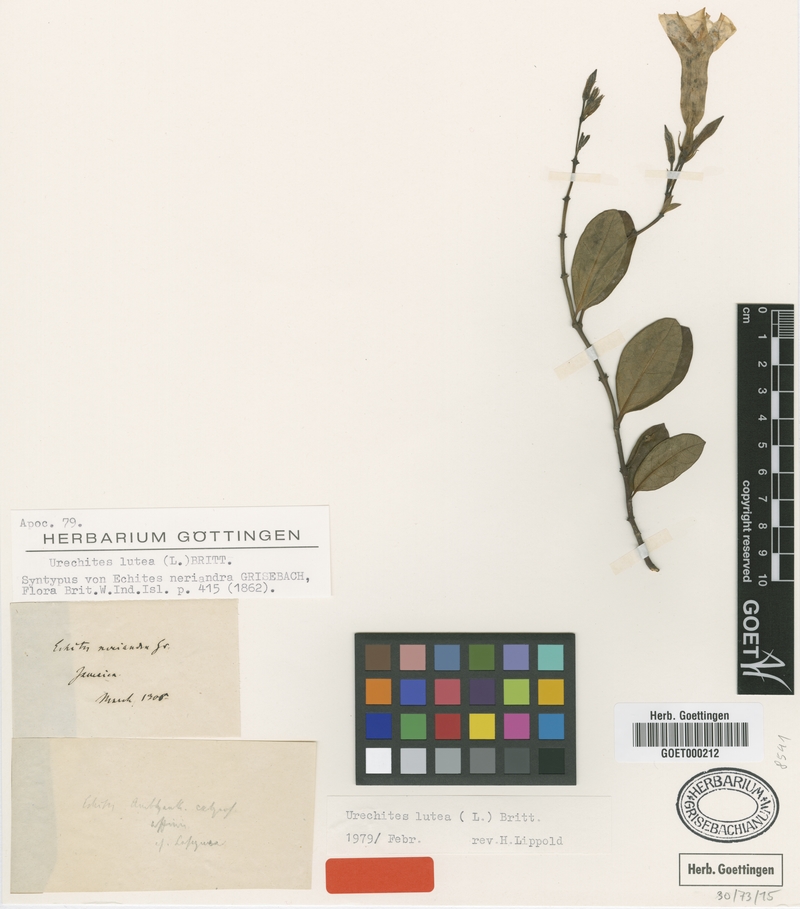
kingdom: Plantae
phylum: Tracheophyta
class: Magnoliopsida
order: Gentianales
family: Apocynaceae
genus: Pentalinon
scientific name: Pentalinon luteum
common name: Licebush
